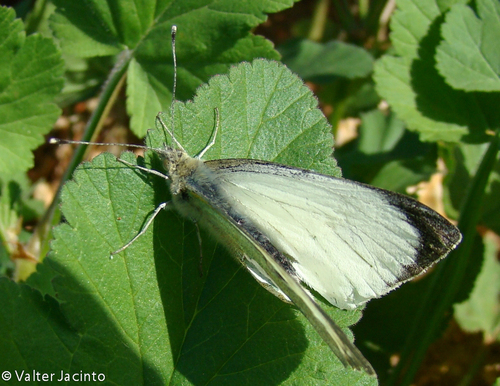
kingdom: Animalia
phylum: Arthropoda
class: Insecta
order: Lepidoptera
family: Pieridae
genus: Pieris
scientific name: Pieris brassicae
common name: Large white
